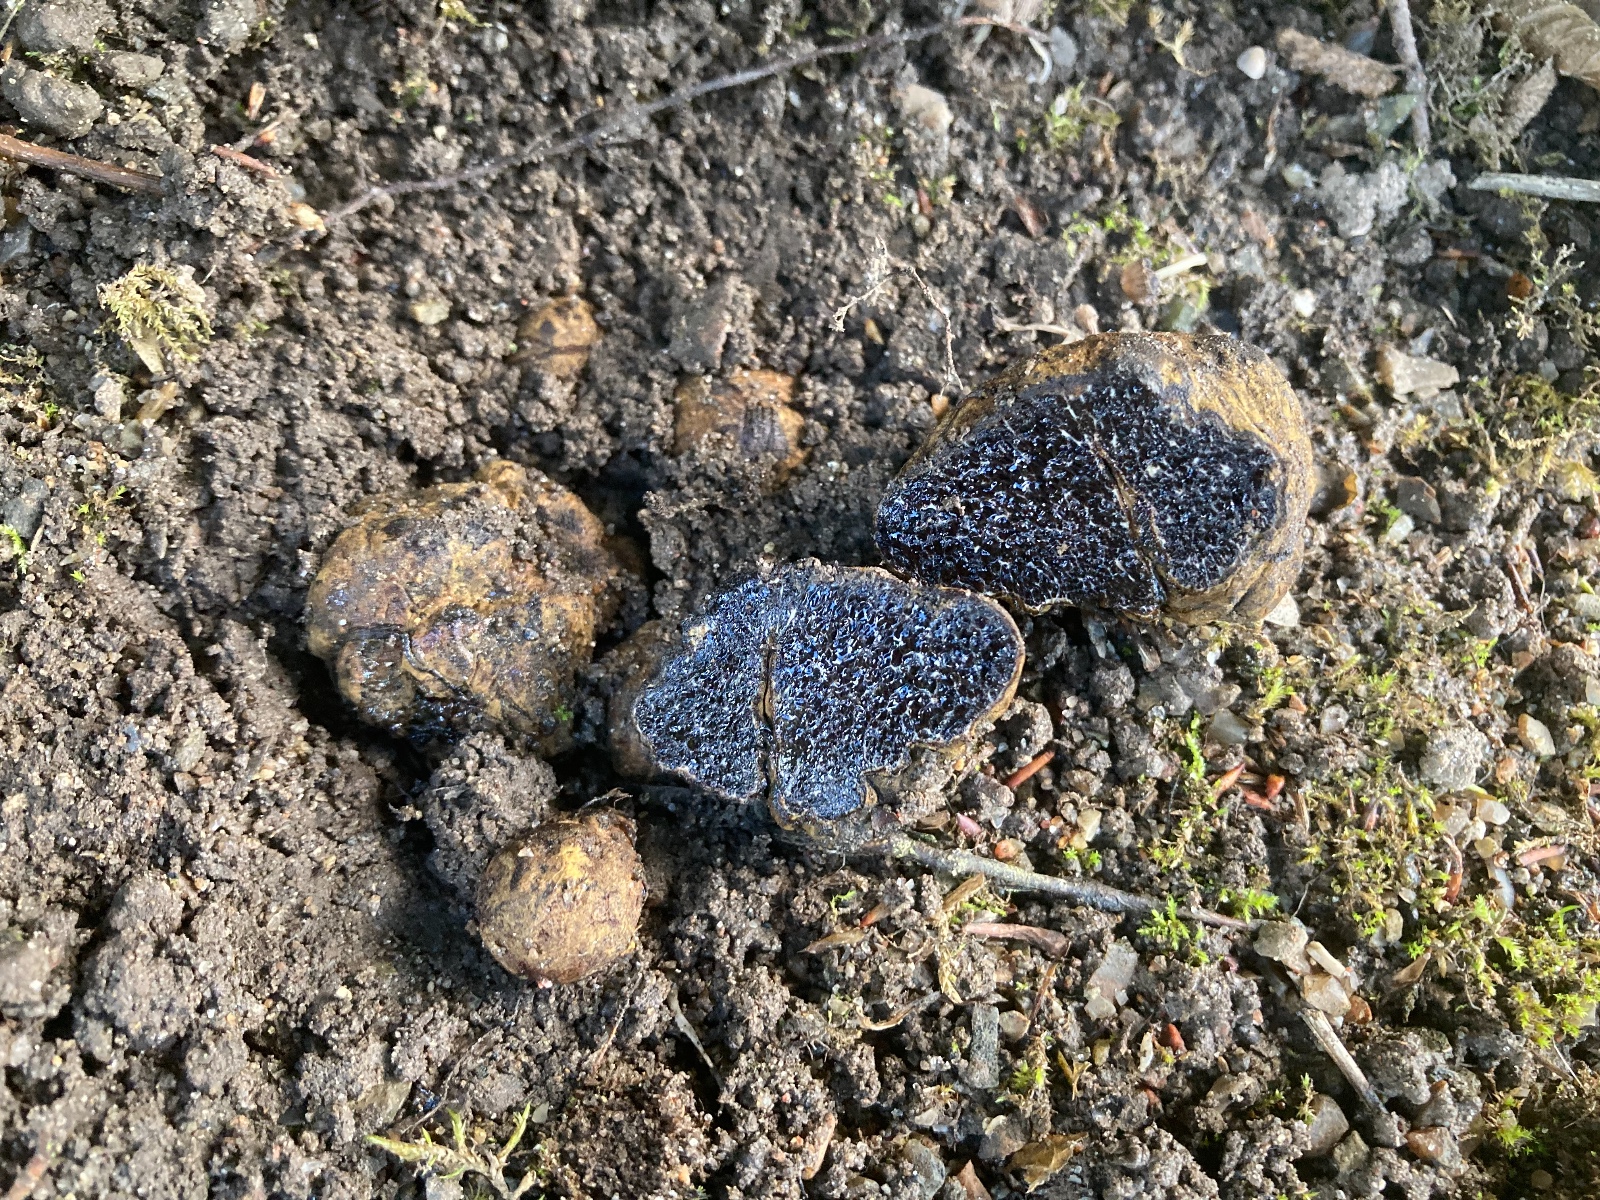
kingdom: Fungi
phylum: Basidiomycota
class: Agaricomycetes
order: Boletales
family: Paxillaceae
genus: Melanogaster
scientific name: Melanogaster broomeanus
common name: broget slimtrøffel
